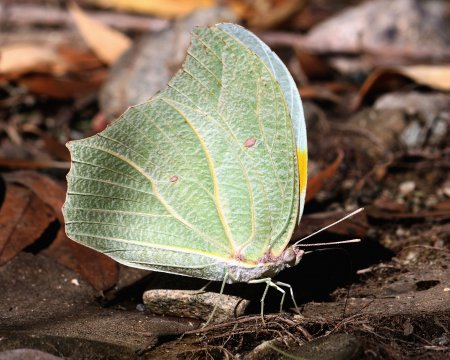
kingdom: Animalia
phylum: Arthropoda
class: Insecta
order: Lepidoptera
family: Pieridae
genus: Anteos
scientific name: Anteos clorinde
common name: White Angled-Sulphur
